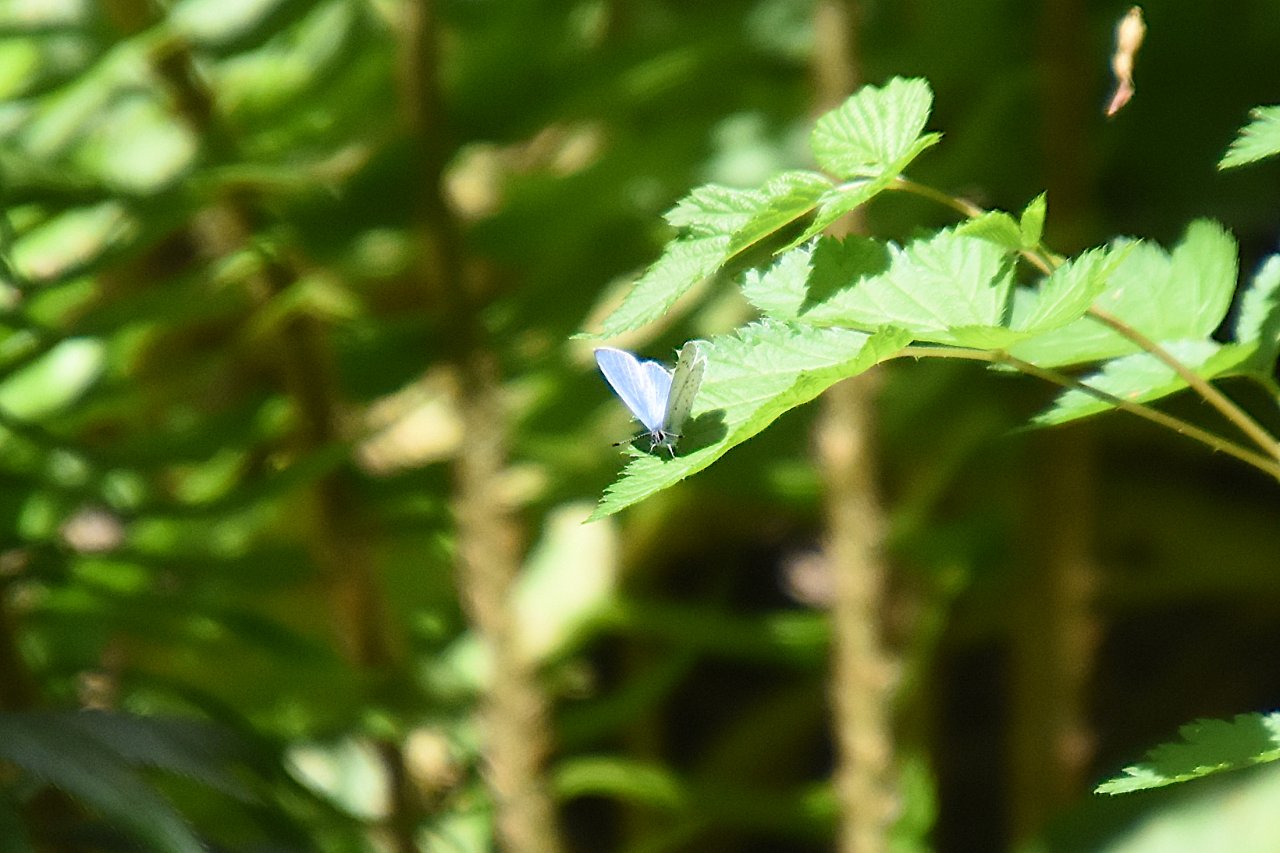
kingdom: Animalia
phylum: Arthropoda
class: Insecta
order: Lepidoptera
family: Lycaenidae
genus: Celastrina
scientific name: Celastrina ladon
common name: Echo Azure
